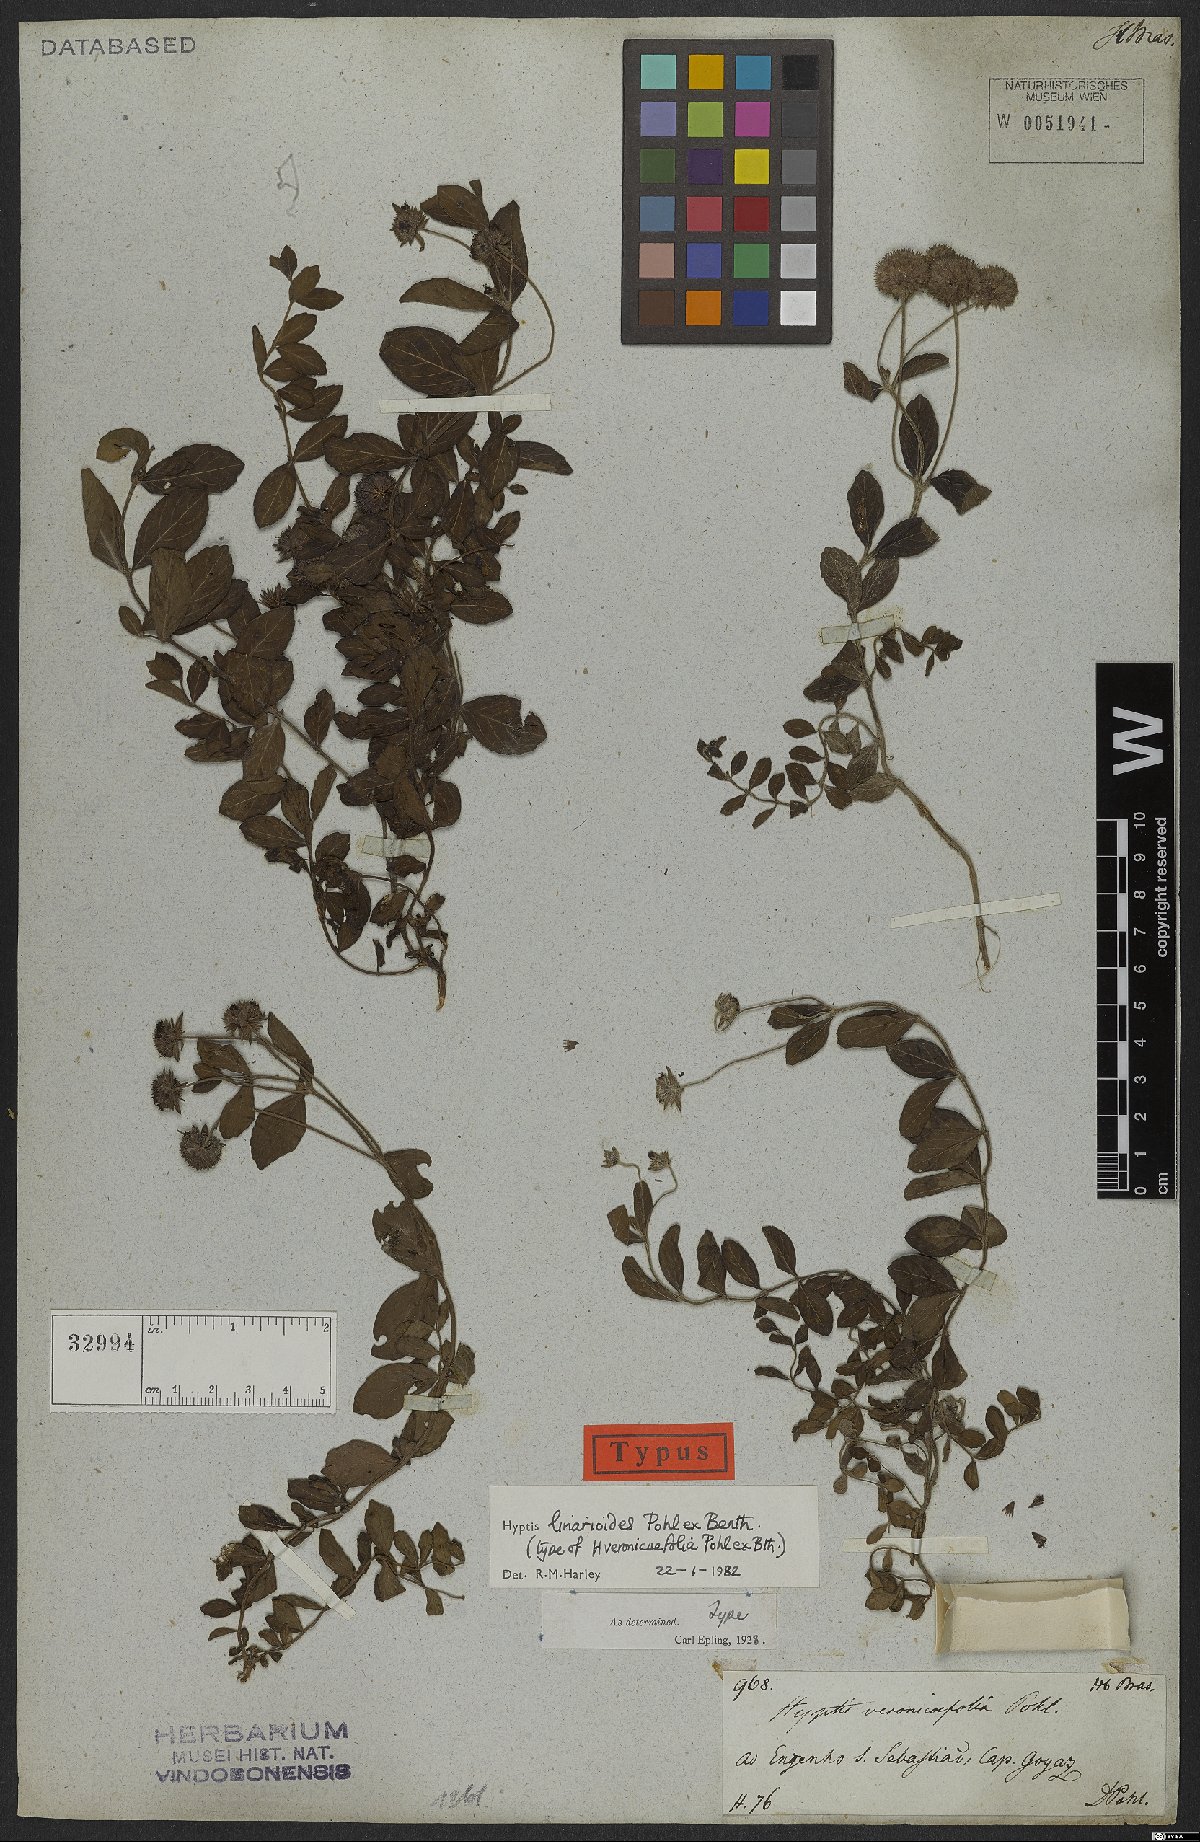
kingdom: Plantae
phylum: Tracheophyta
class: Magnoliopsida
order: Lamiales
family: Lamiaceae
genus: Hyptis
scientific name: Hyptis linarioides
